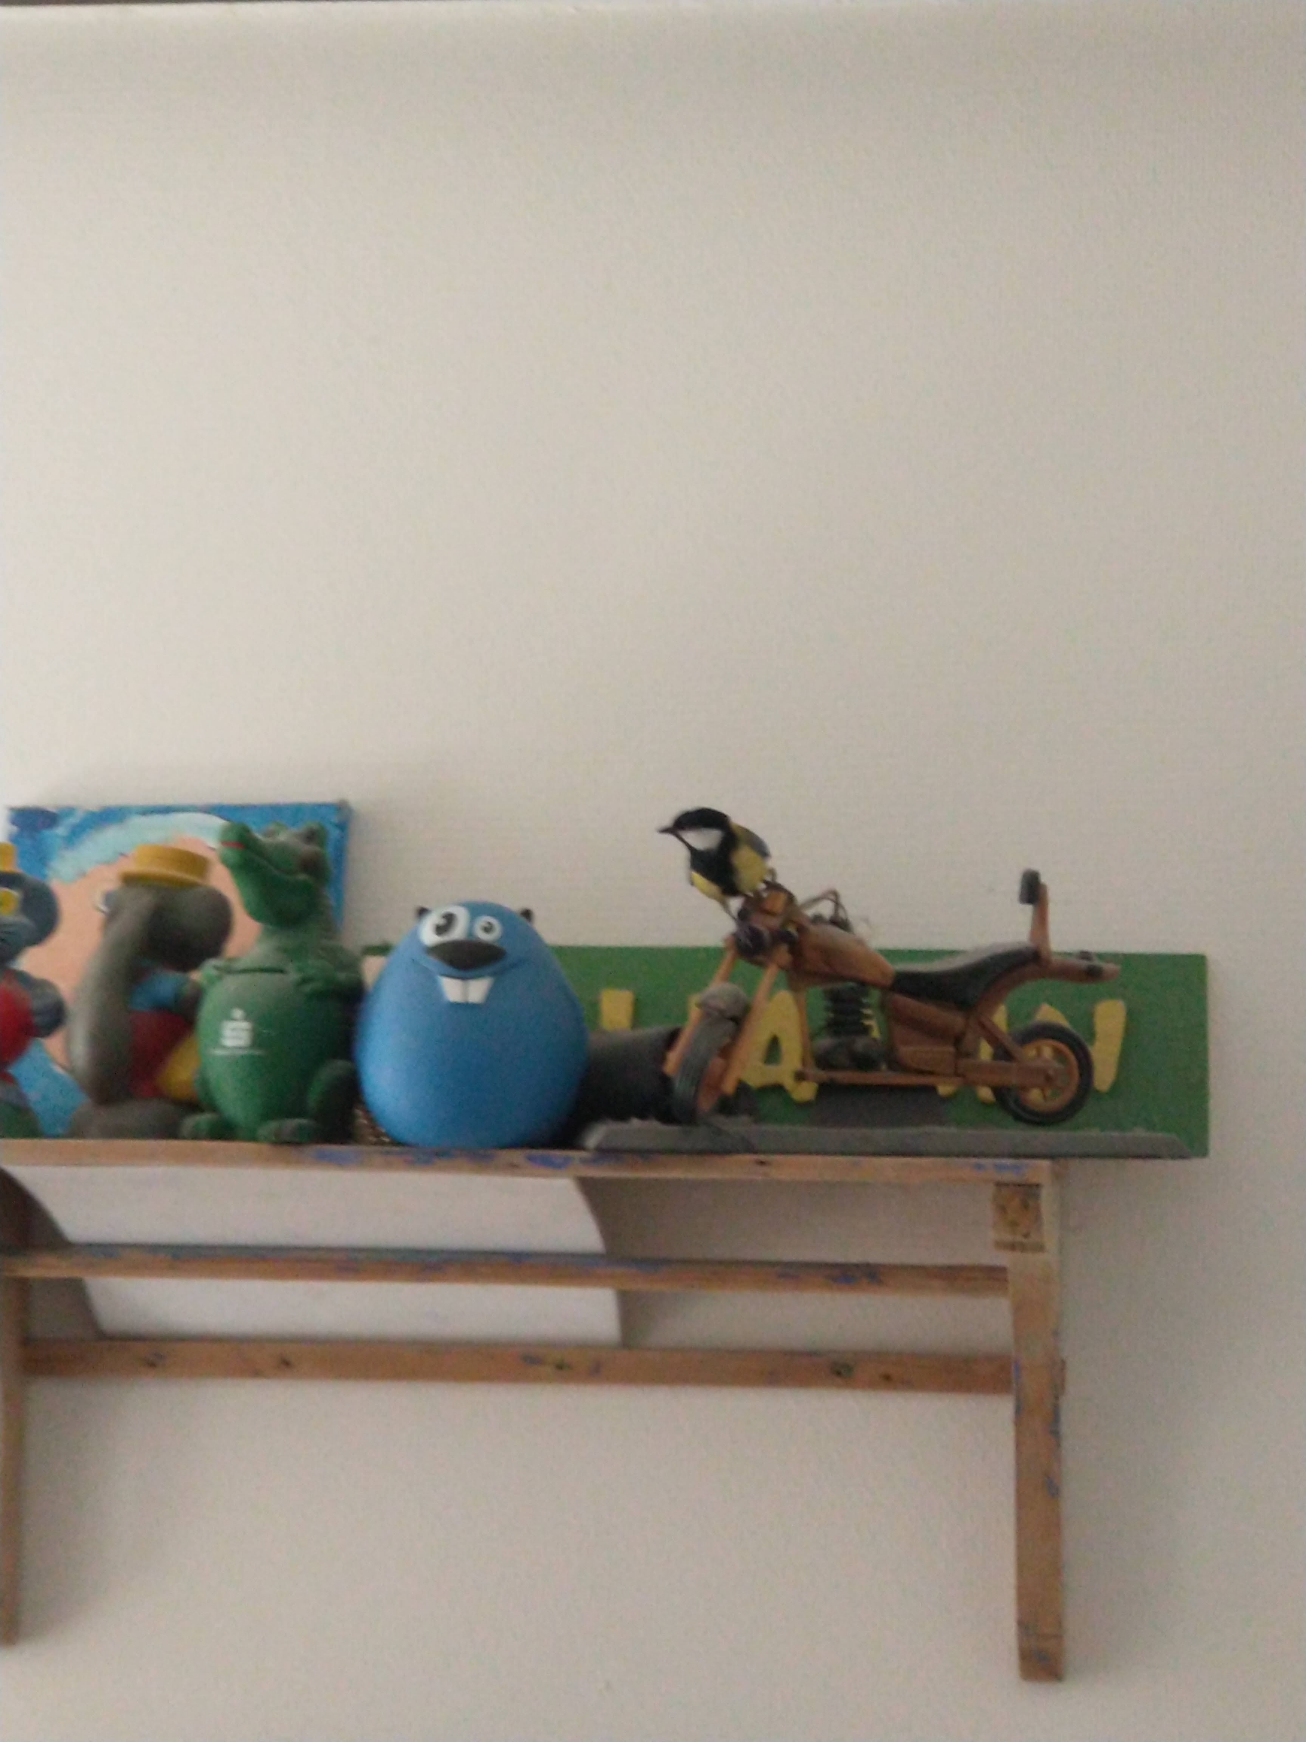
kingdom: Animalia
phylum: Chordata
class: Aves
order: Passeriformes
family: Paridae
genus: Parus
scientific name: Parus major
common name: Musvit
